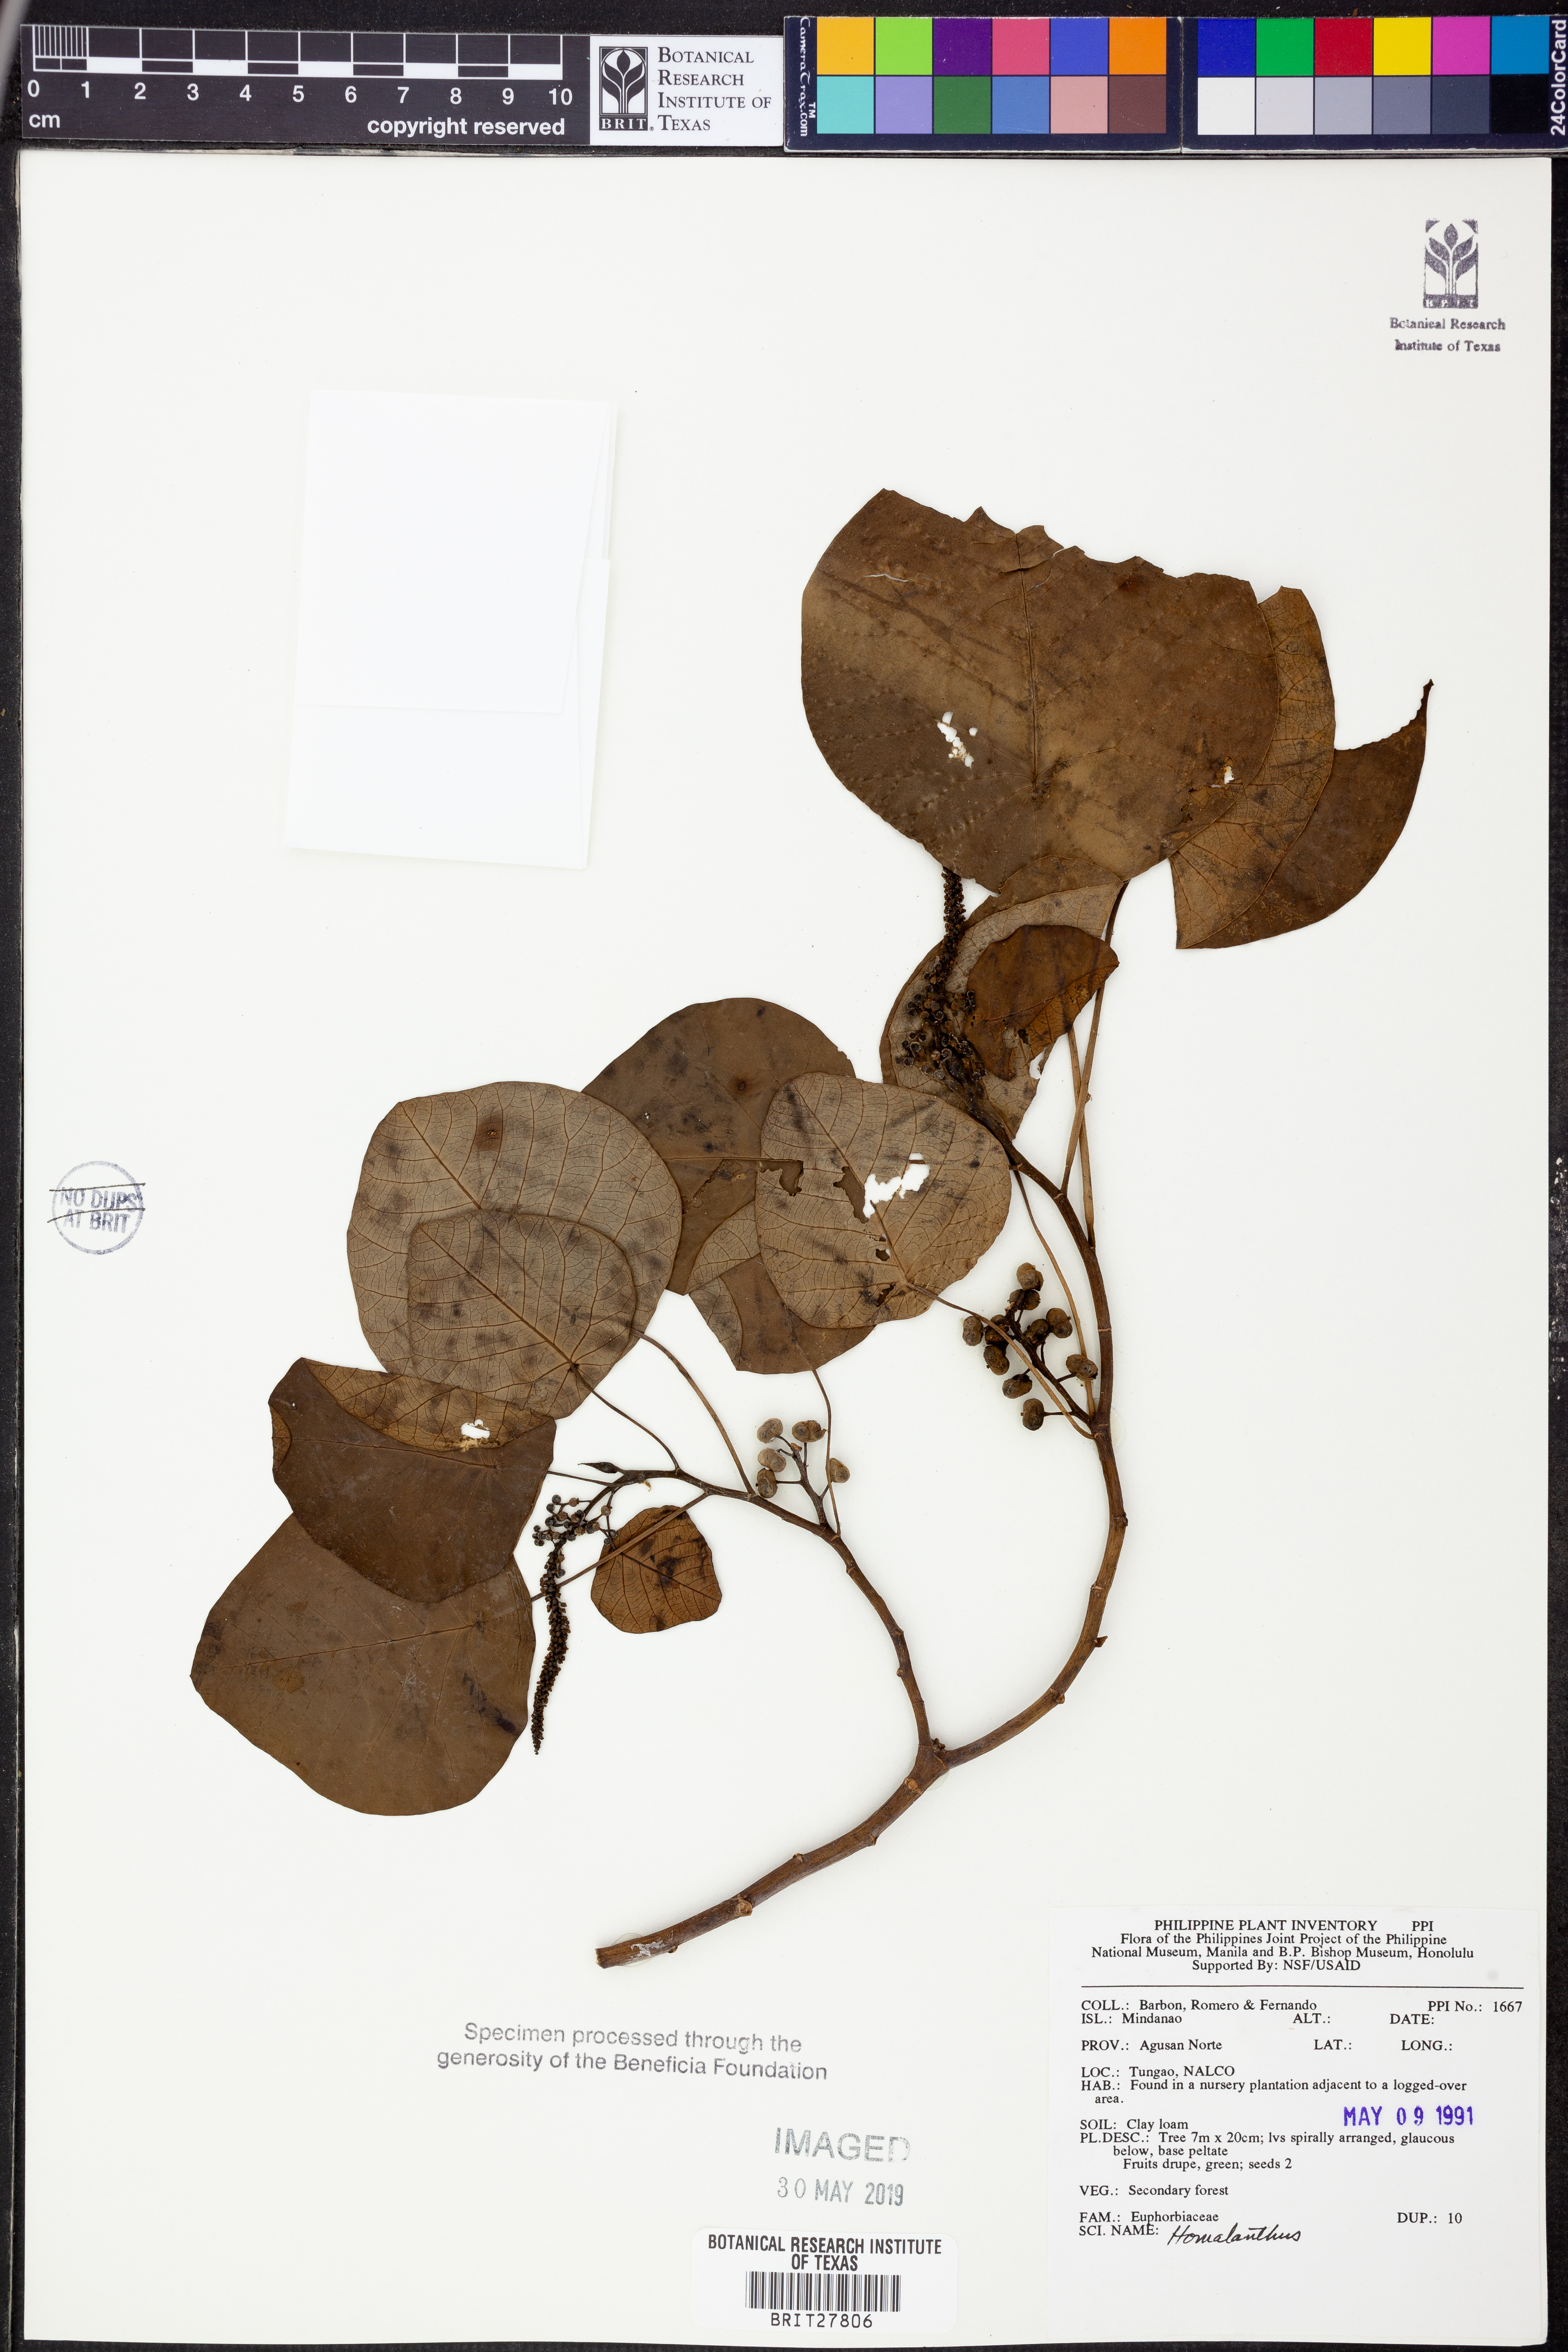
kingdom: Plantae
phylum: Tracheophyta
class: Magnoliopsida
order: Malpighiales
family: Euphorbiaceae
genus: Homalanthus
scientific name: Homalanthus
